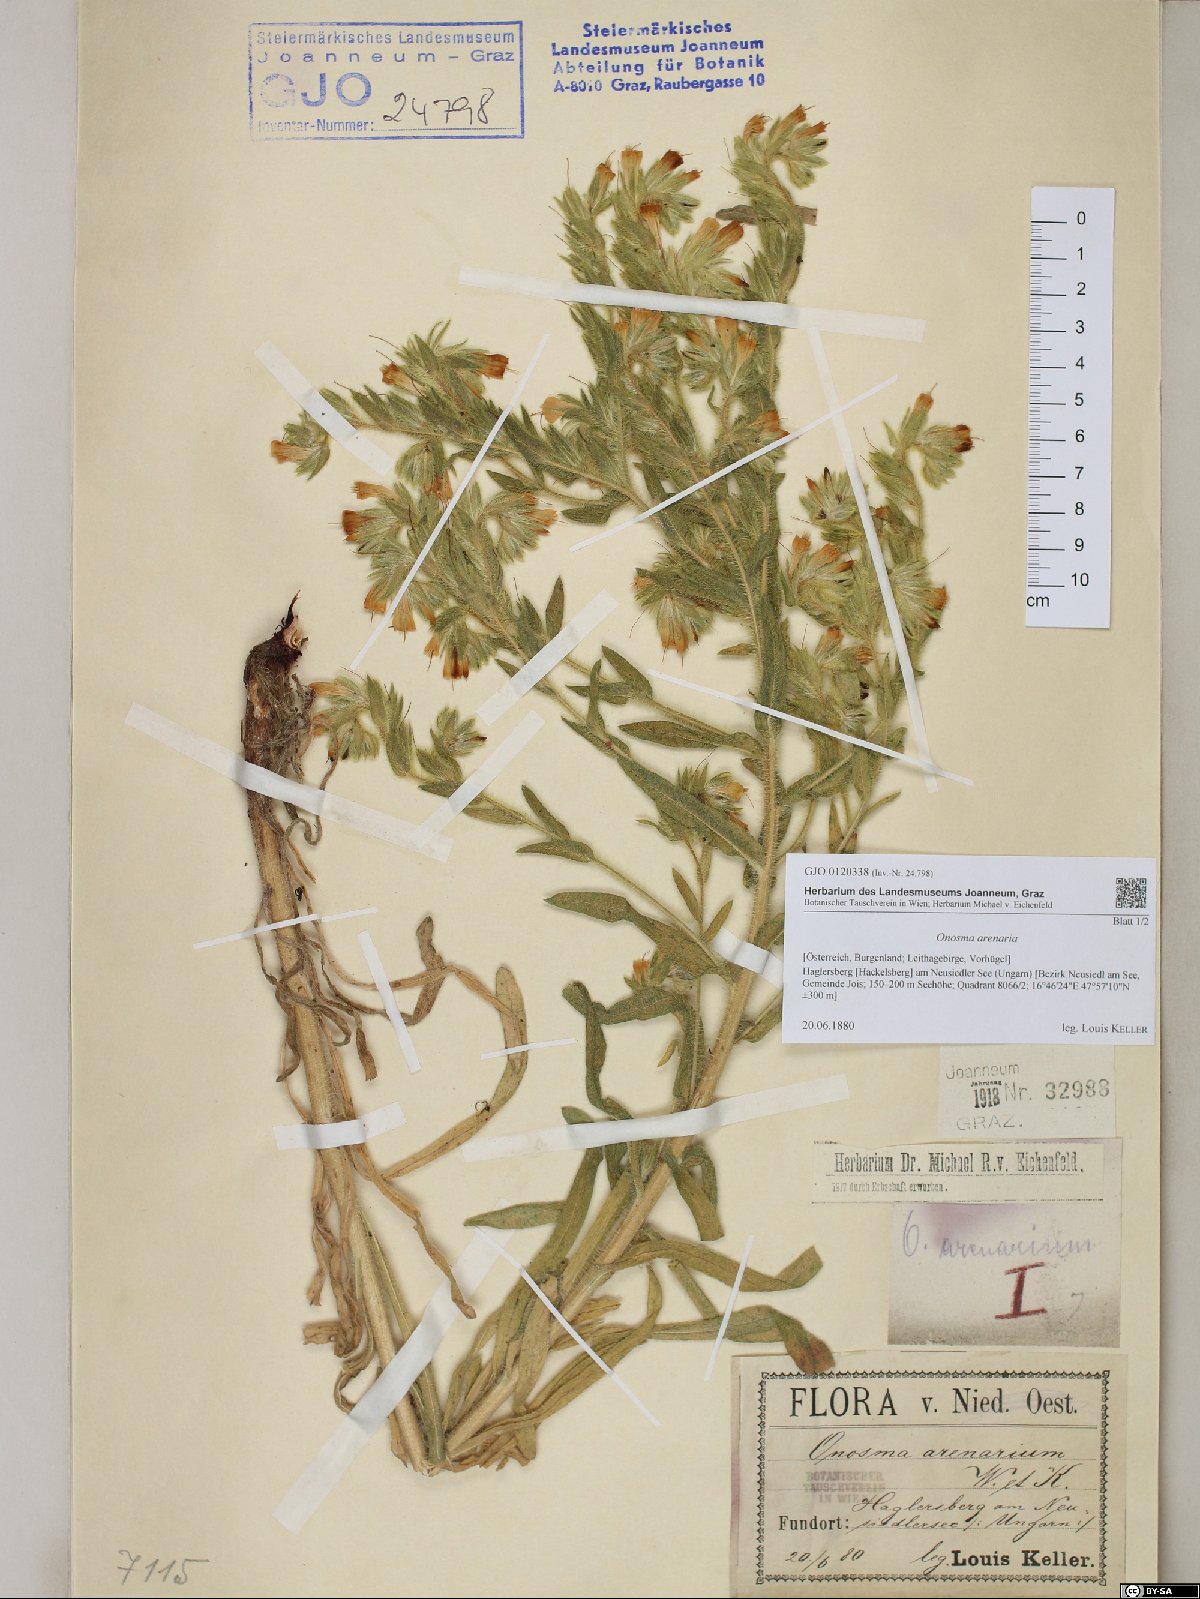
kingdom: Plantae
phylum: Tracheophyta
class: Magnoliopsida
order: Boraginales
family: Boraginaceae
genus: Onosma
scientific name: Onosma arenaria
